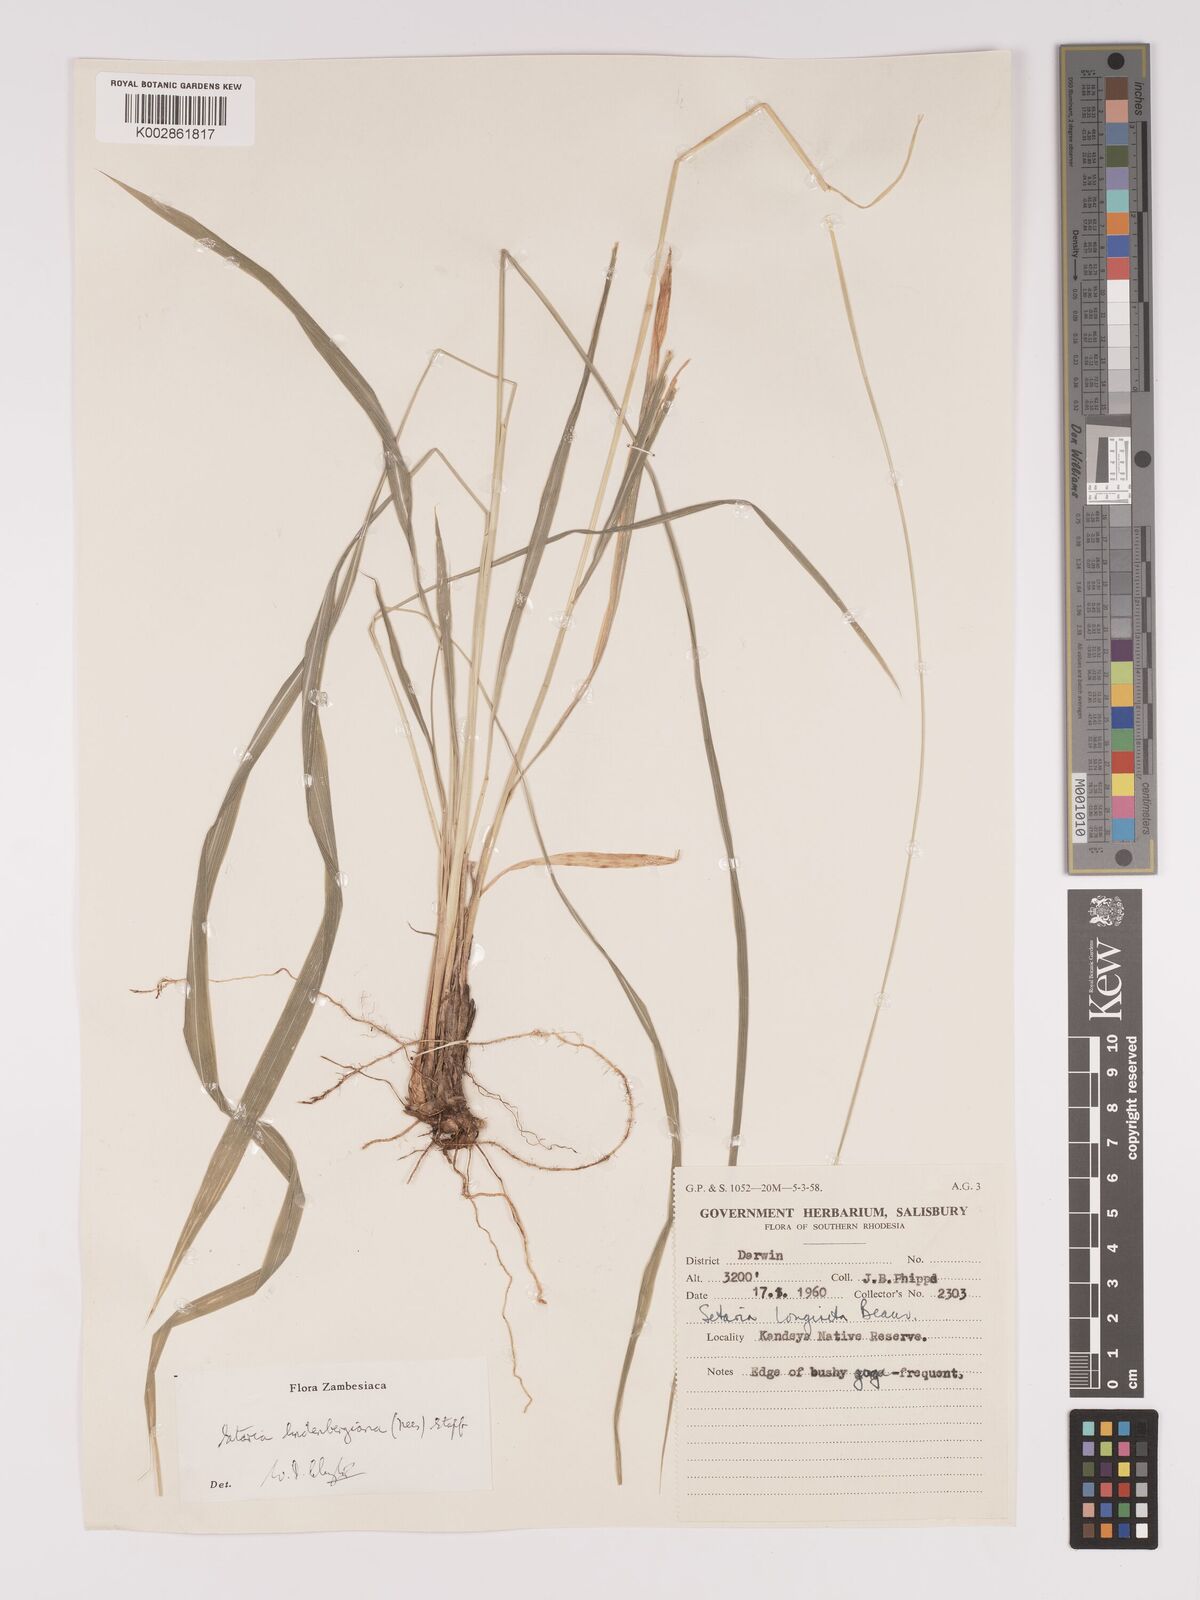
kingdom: Plantae
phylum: Tracheophyta
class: Liliopsida
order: Poales
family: Poaceae
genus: Setaria
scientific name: Setaria lindenbergiana
